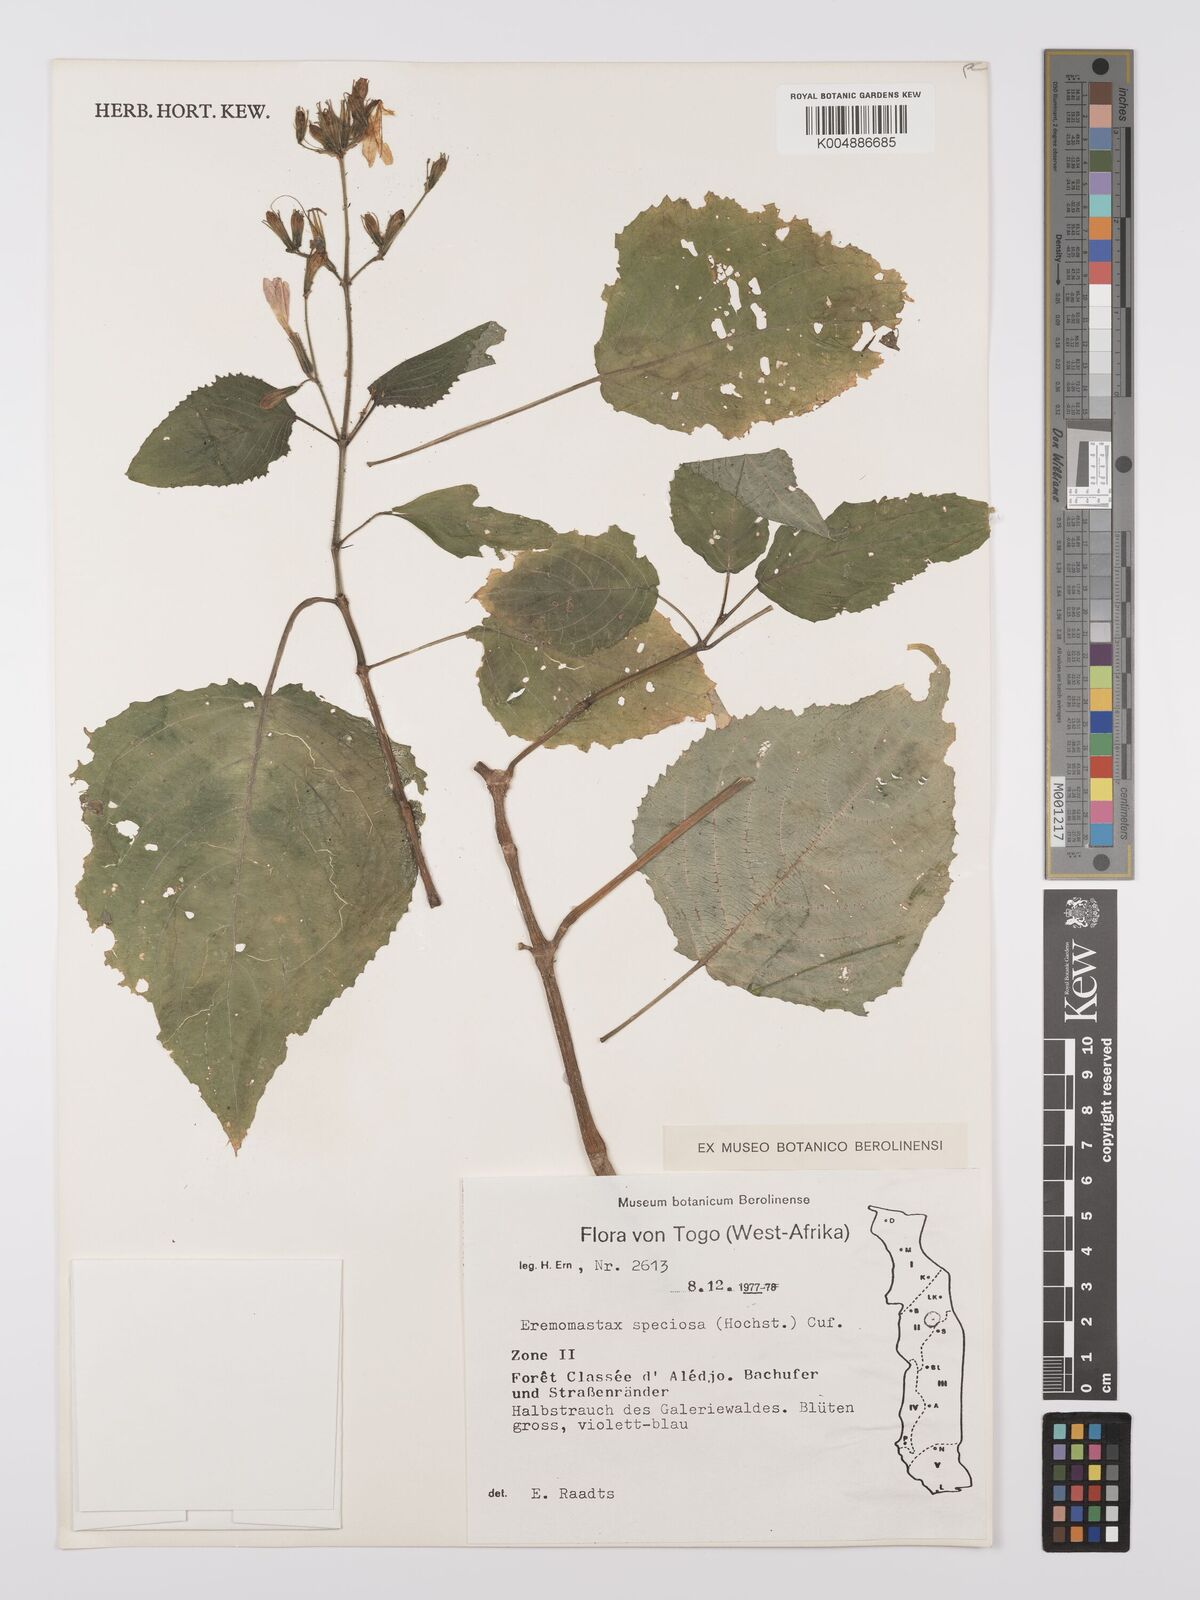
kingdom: Plantae
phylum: Tracheophyta
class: Magnoliopsida
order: Lamiales
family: Acanthaceae
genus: Eremomastax
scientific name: Eremomastax speciosa
